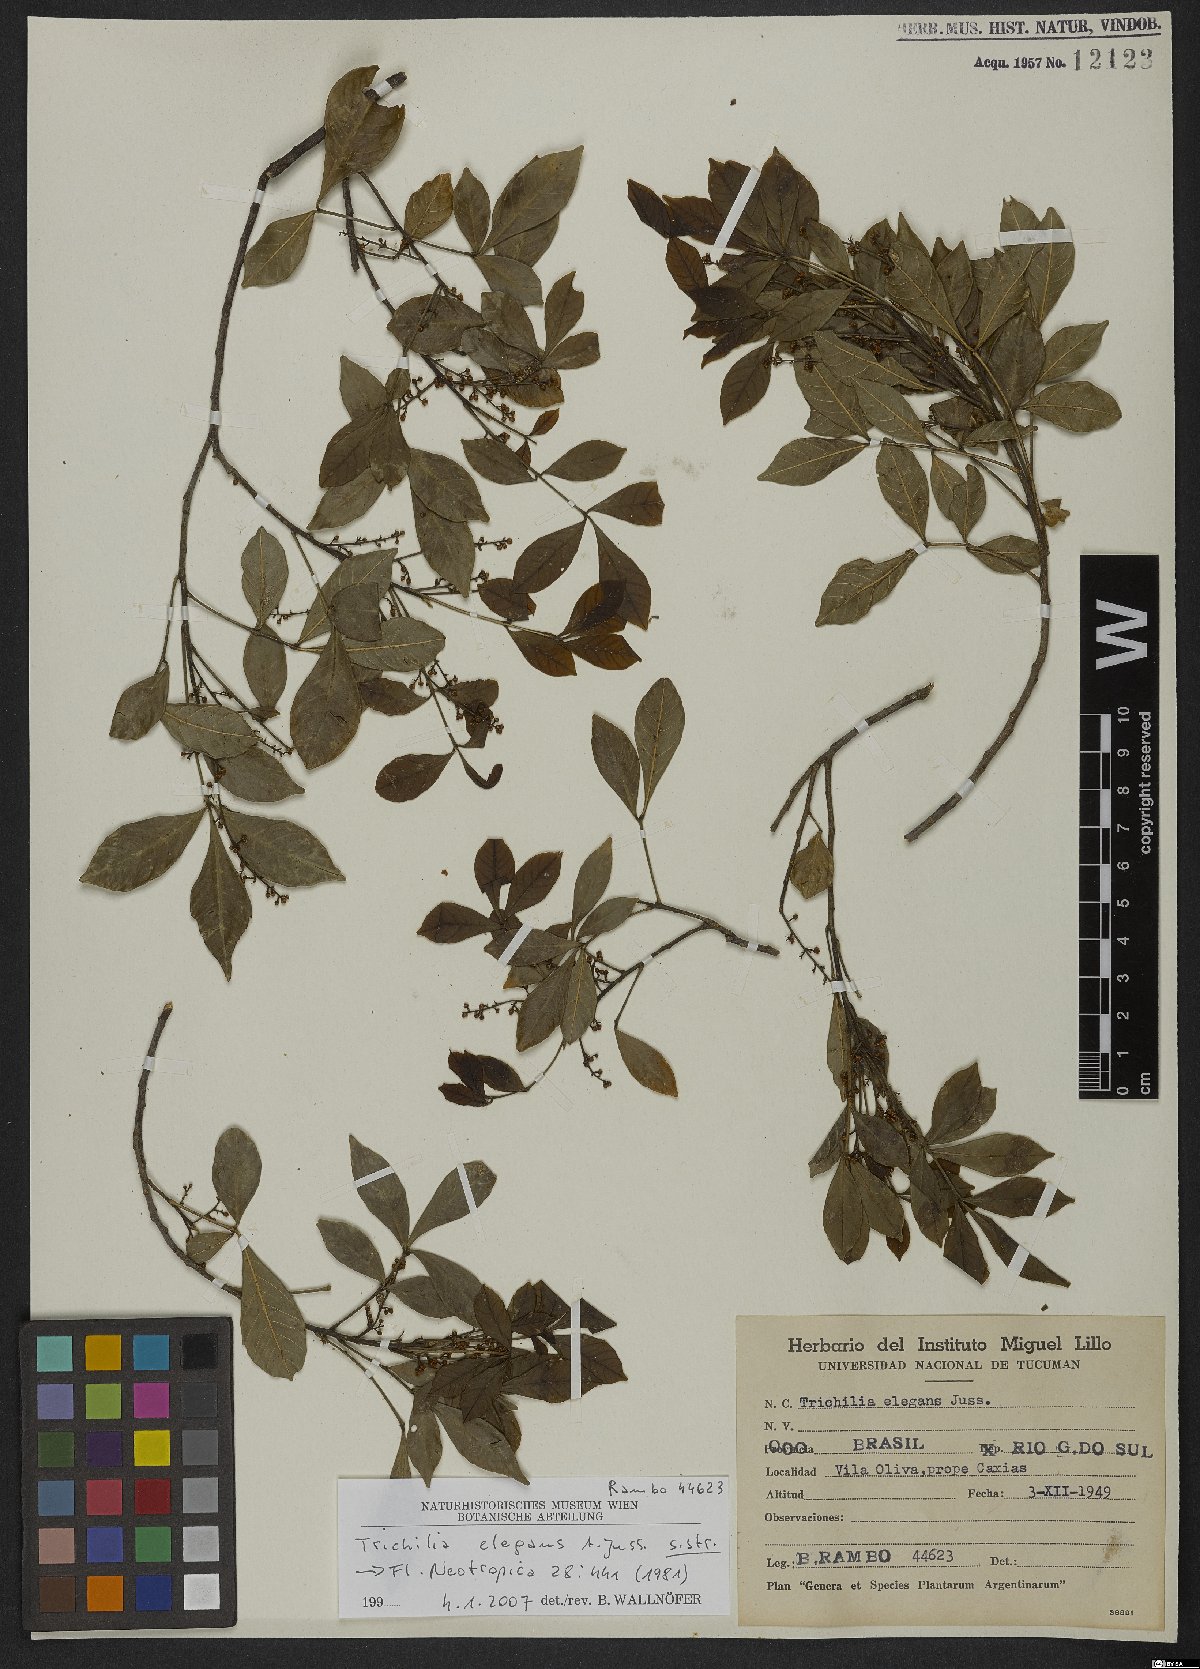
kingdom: Plantae
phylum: Tracheophyta
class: Magnoliopsida
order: Sapindales
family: Meliaceae
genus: Trichilia
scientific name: Trichilia elegans
